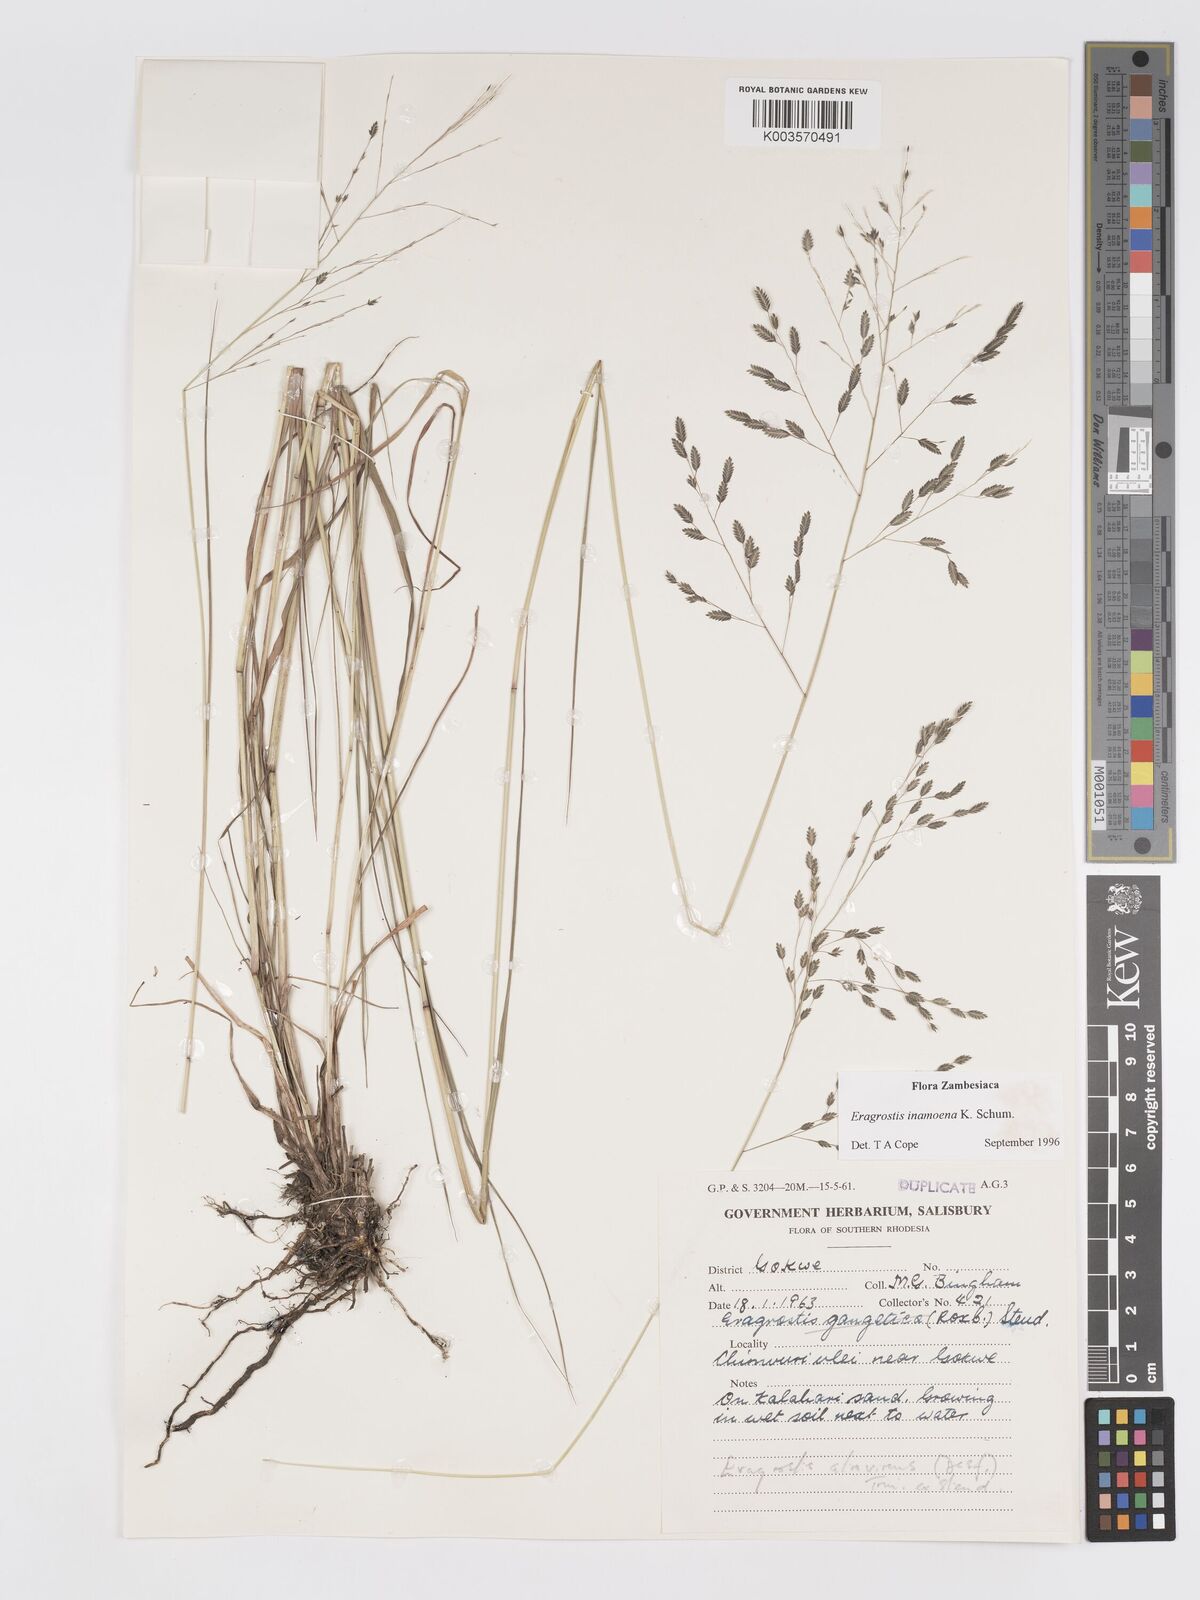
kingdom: Plantae
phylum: Tracheophyta
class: Liliopsida
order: Poales
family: Poaceae
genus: Eragrostis
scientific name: Eragrostis inamoena
